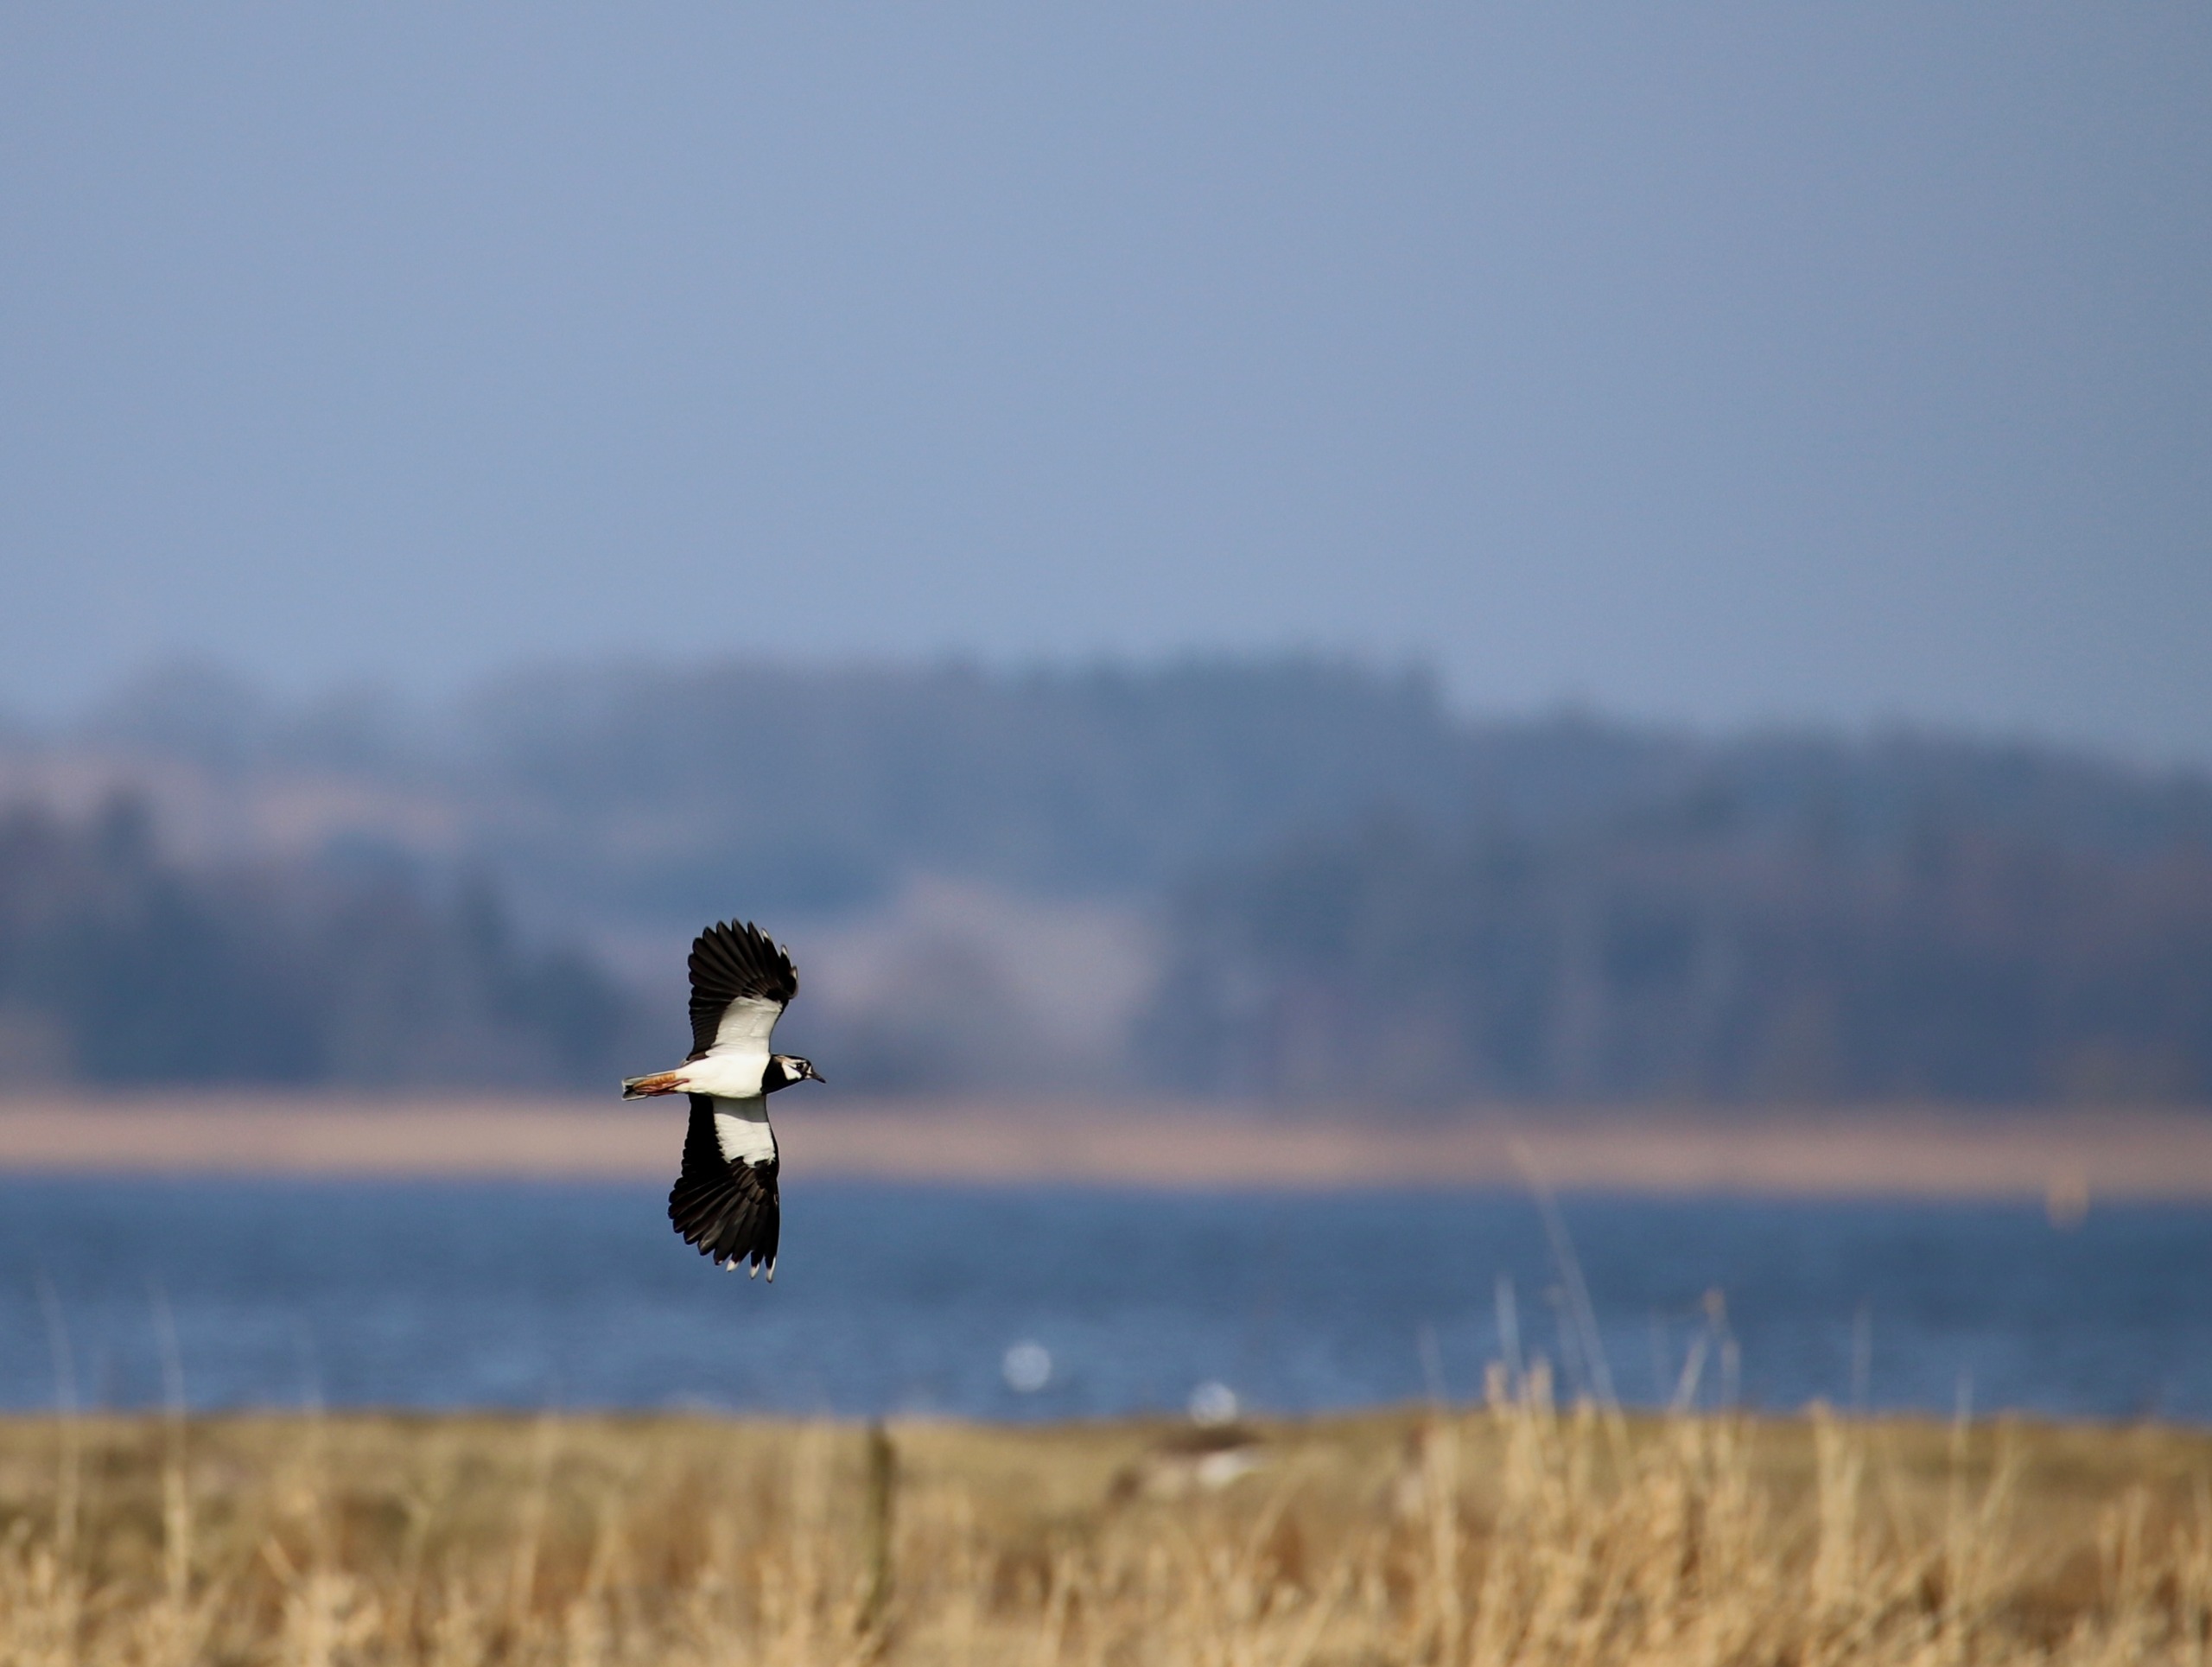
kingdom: Animalia
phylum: Chordata
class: Aves
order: Charadriiformes
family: Charadriidae
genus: Vanellus
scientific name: Vanellus vanellus
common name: Vibe
